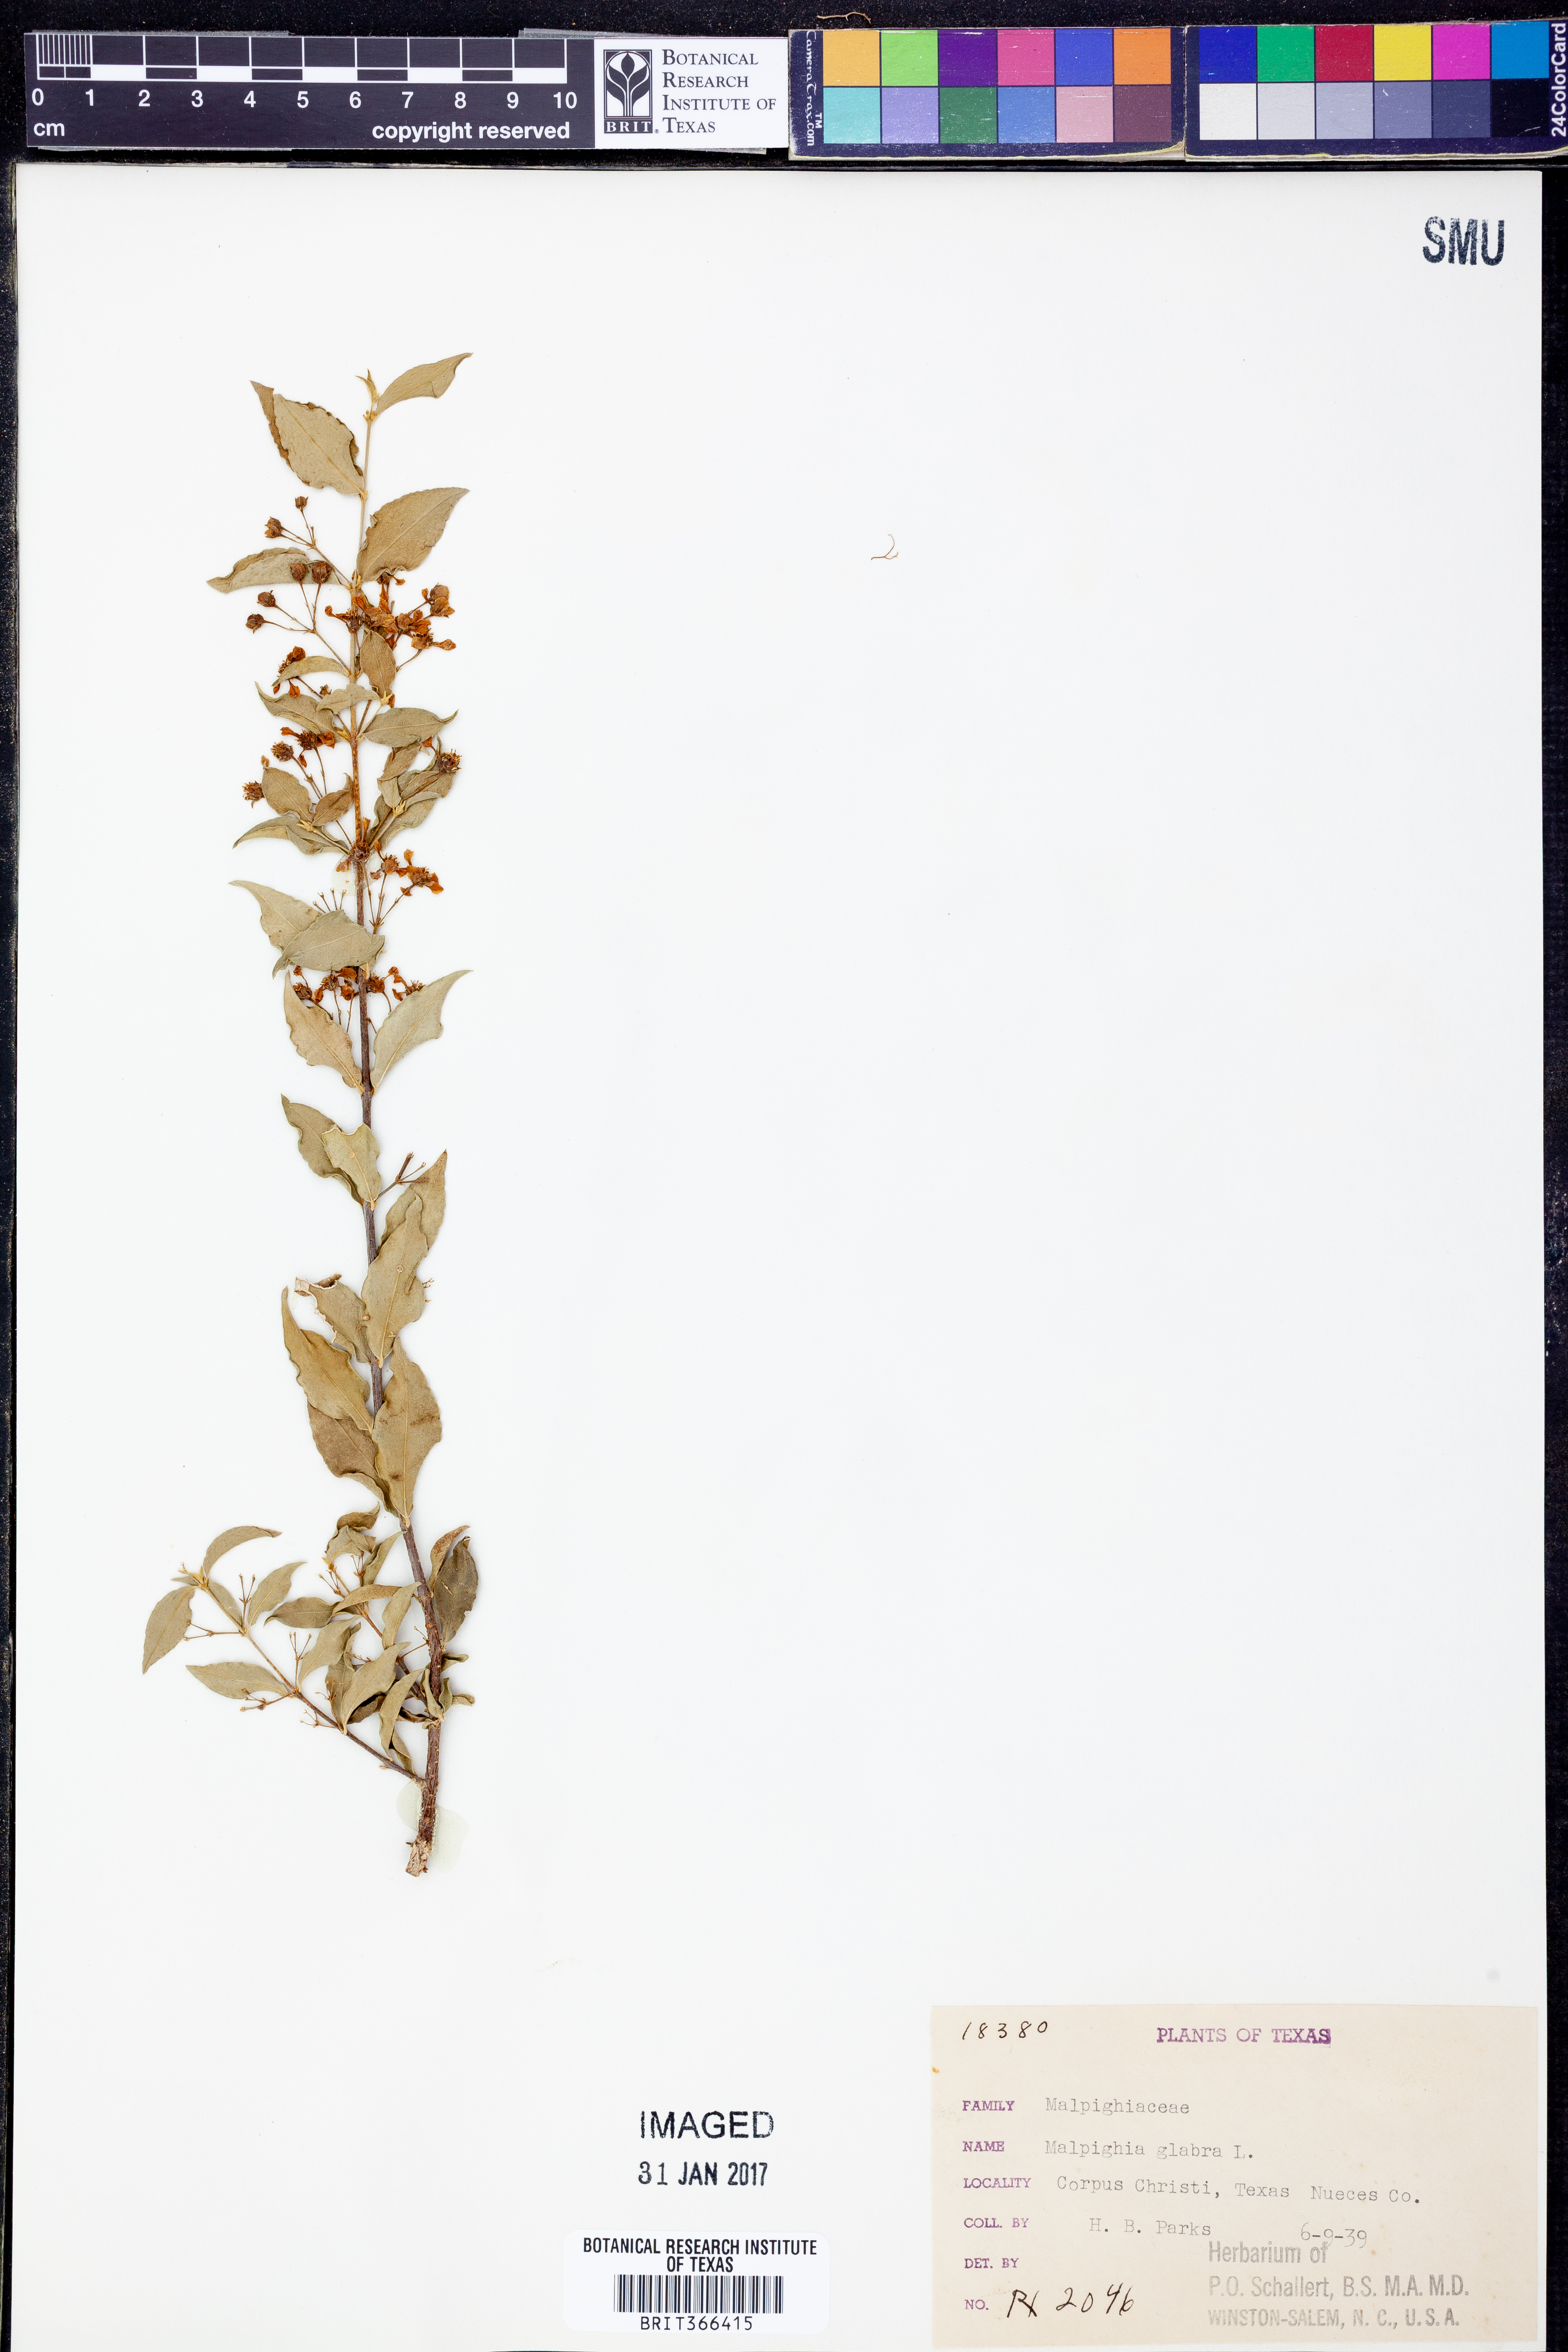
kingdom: Plantae
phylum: Tracheophyta
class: Magnoliopsida
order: Malpighiales
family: Malpighiaceae
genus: Malpighia
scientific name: Malpighia glabra
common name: Barbados cherry
